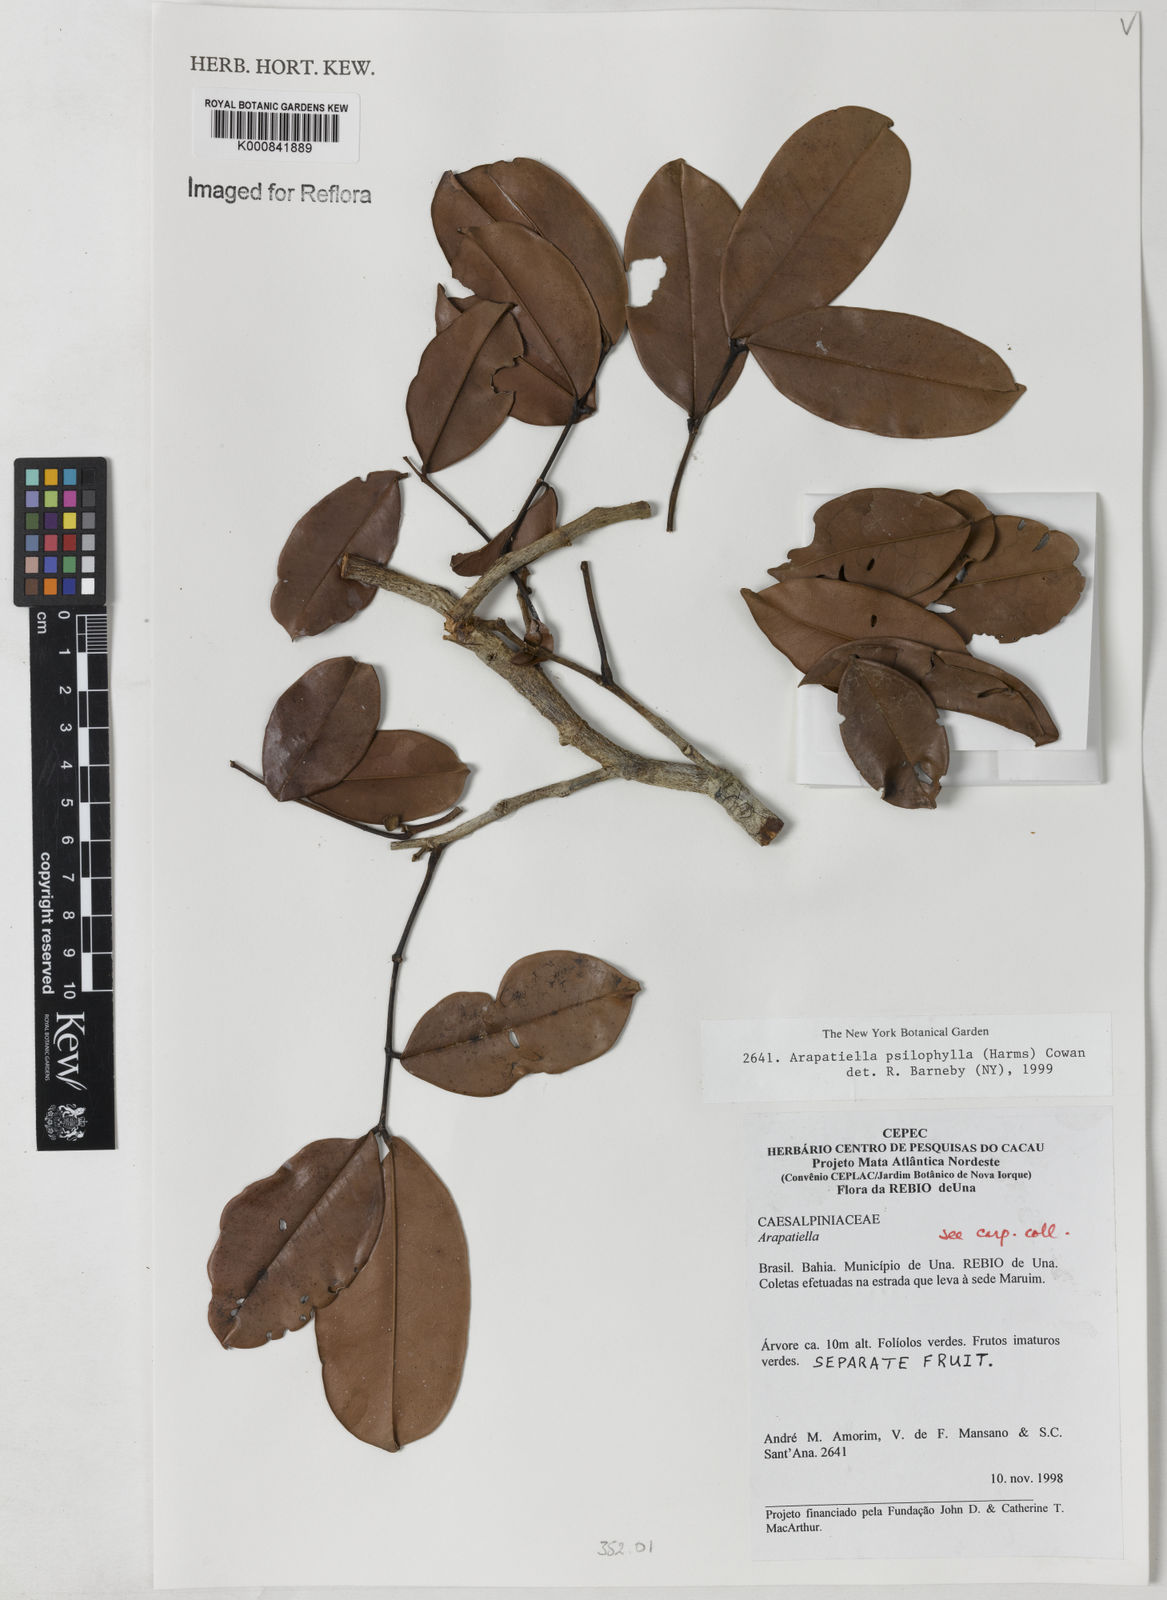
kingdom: Plantae
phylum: Tracheophyta
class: Magnoliopsida
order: Fabales
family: Fabaceae
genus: Arapatiella
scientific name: Arapatiella
